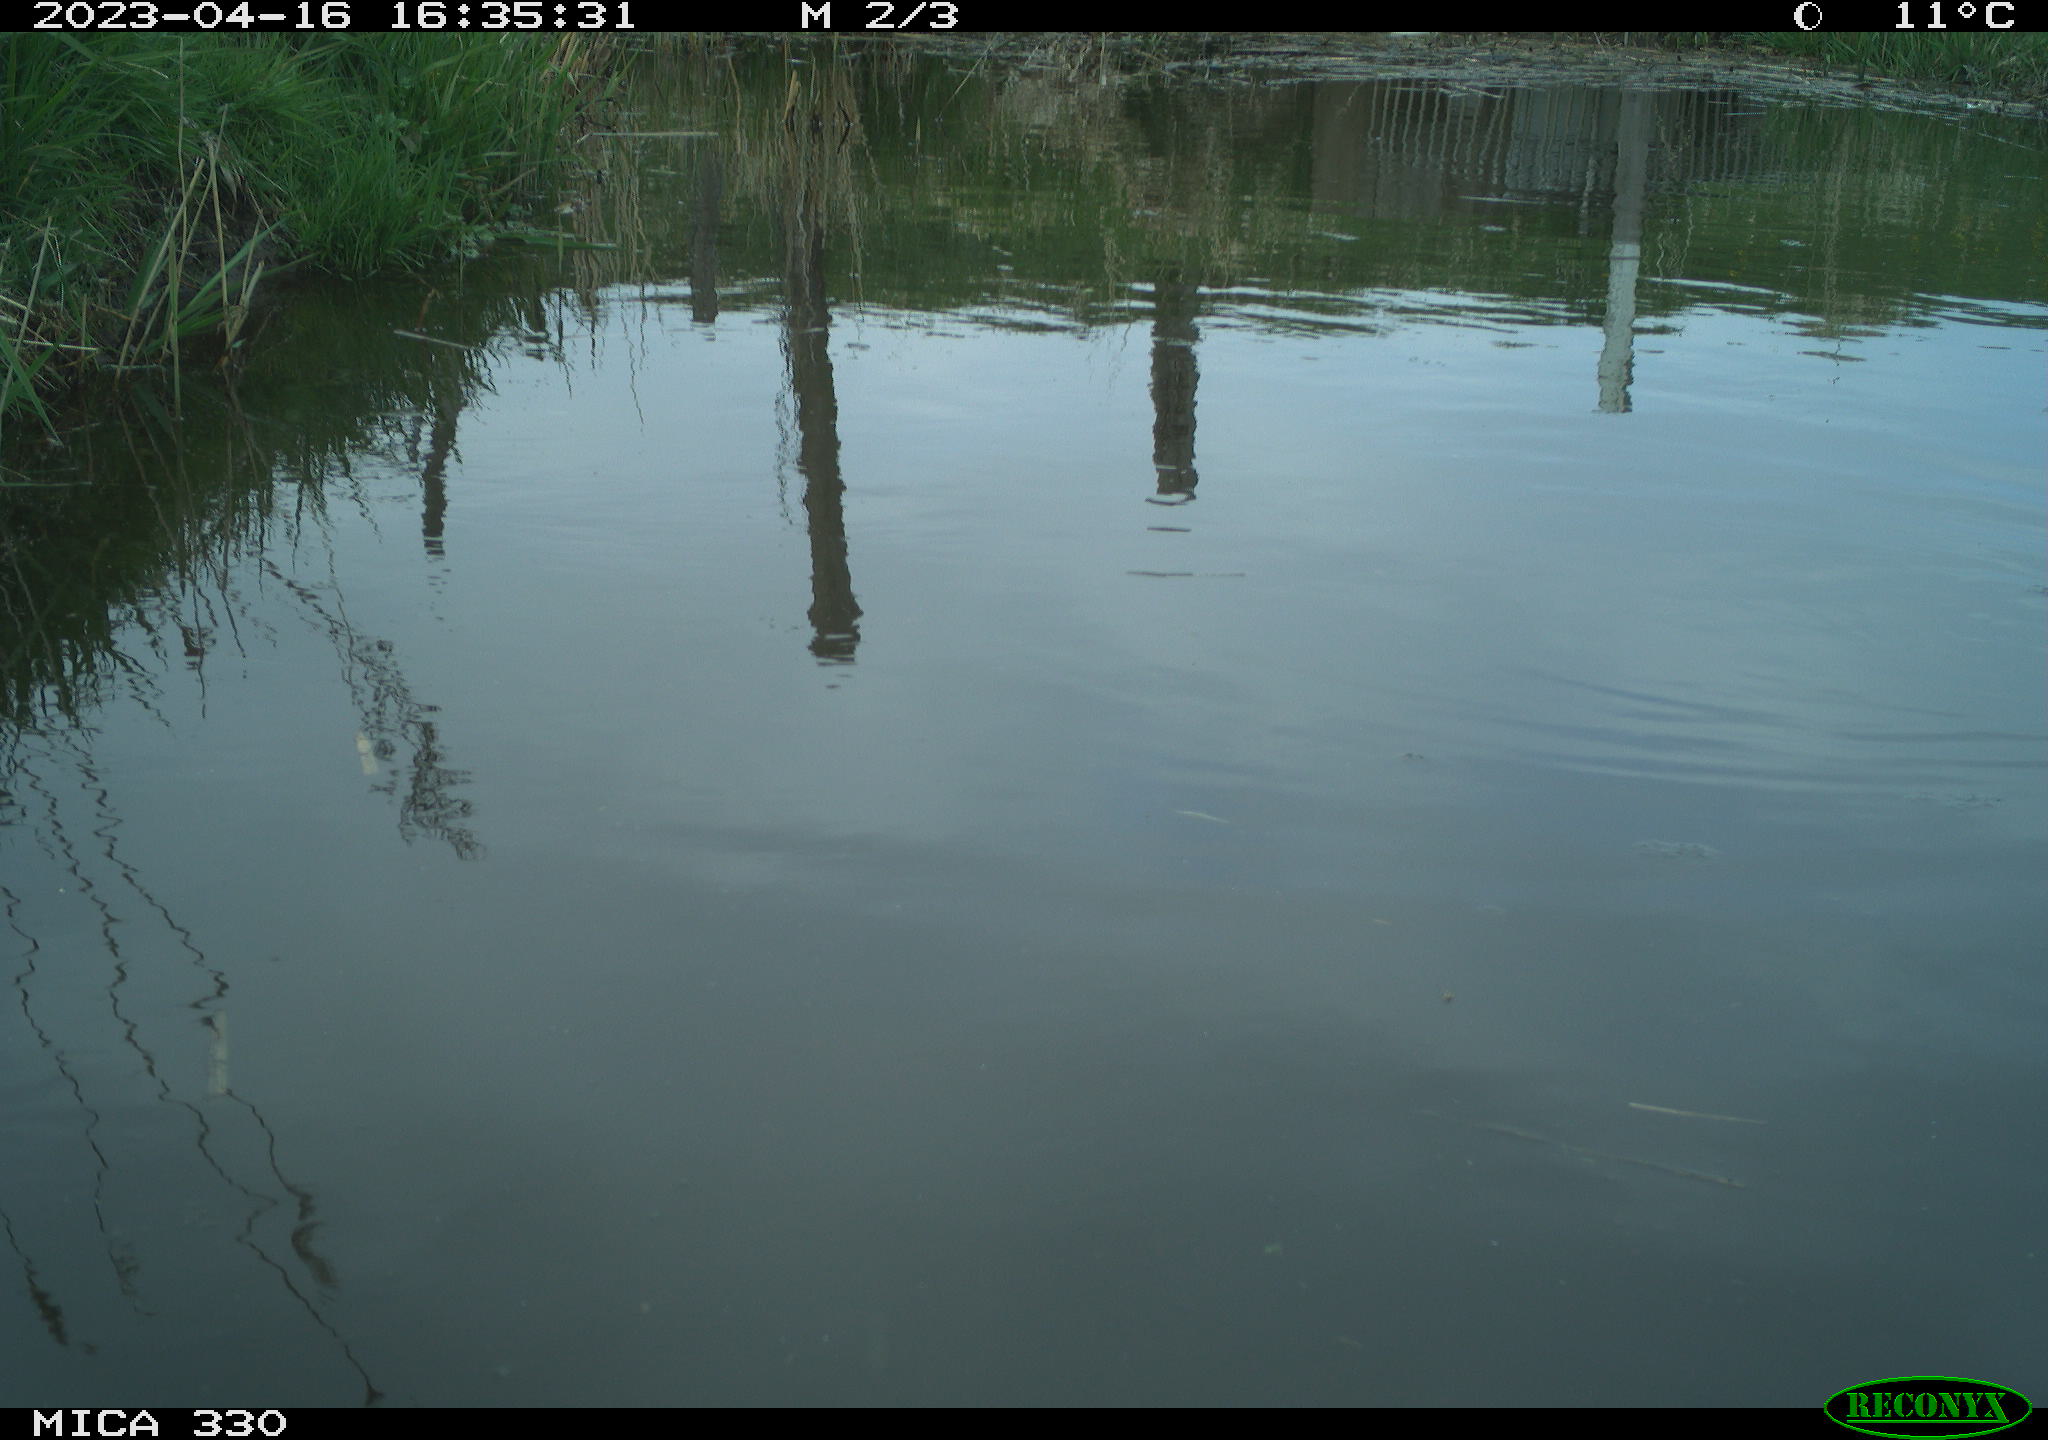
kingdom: Animalia
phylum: Chordata
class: Aves
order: Gruiformes
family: Rallidae
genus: Gallinula
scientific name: Gallinula chloropus
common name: Common moorhen
